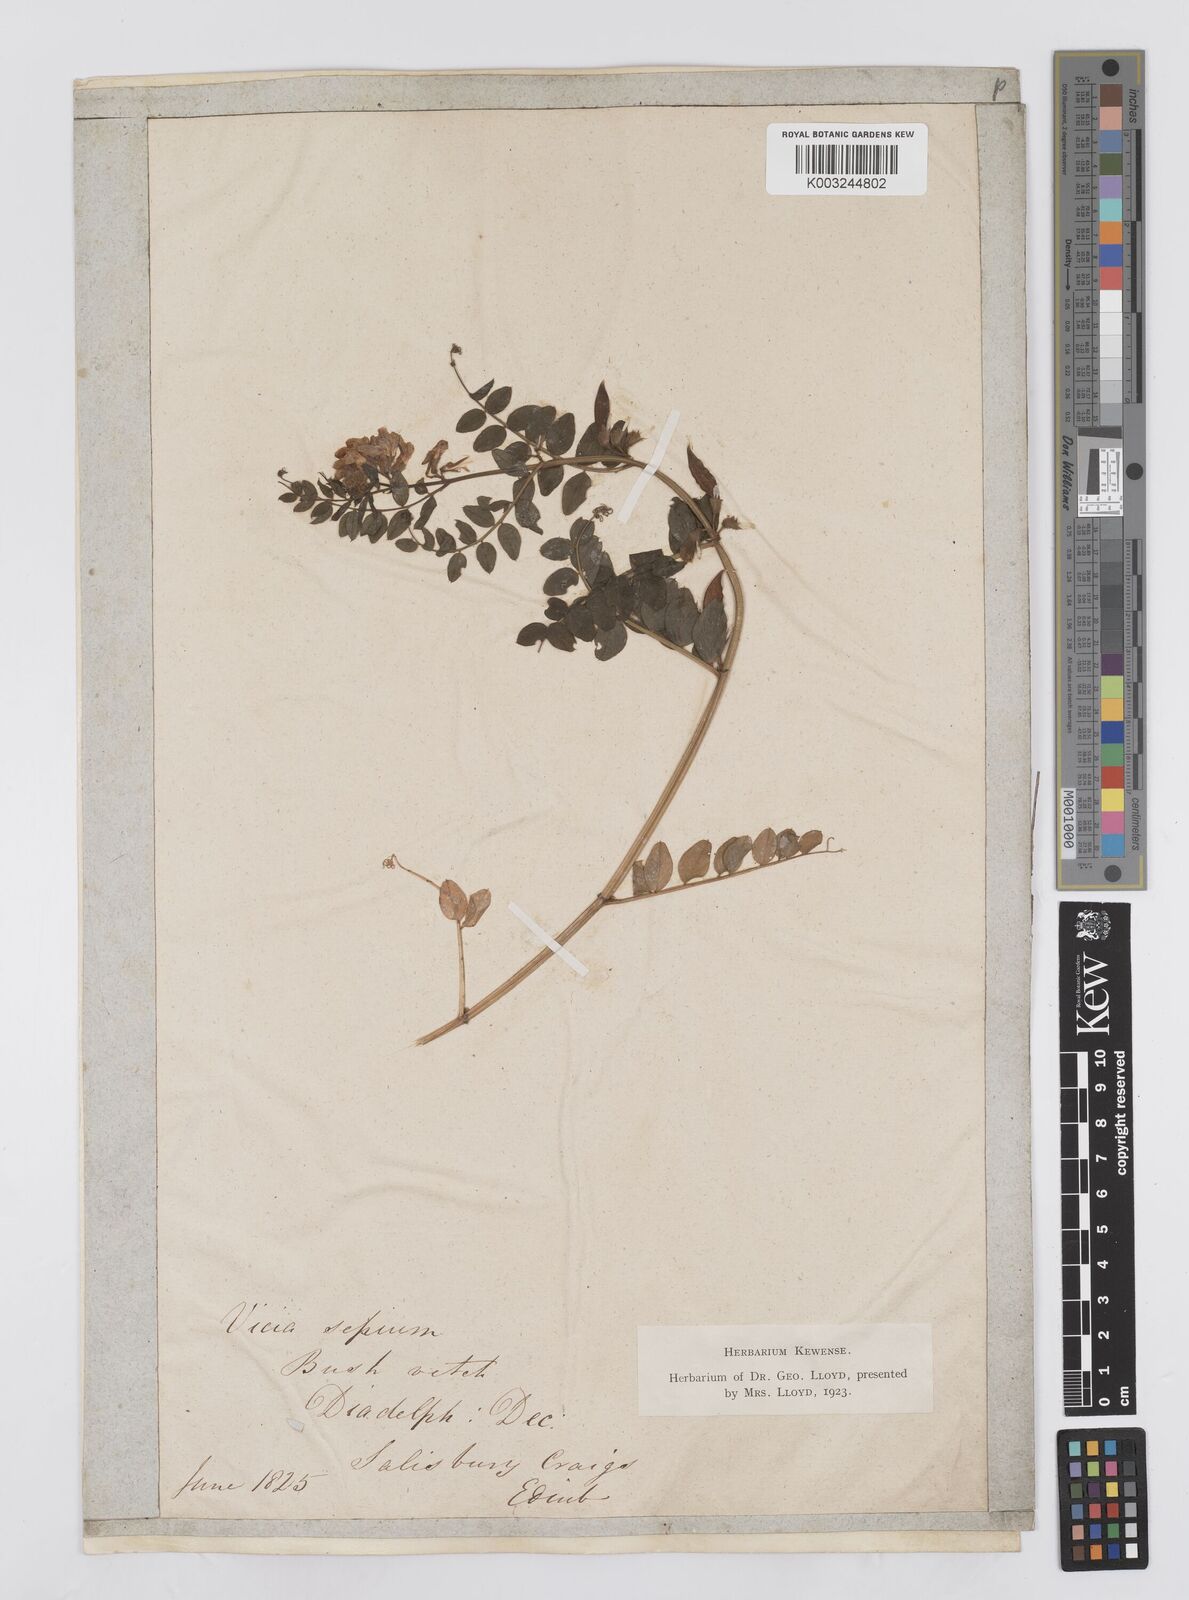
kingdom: Plantae
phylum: Tracheophyta
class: Magnoliopsida
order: Fabales
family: Fabaceae
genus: Vicia
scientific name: Vicia sepium
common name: Bush vetch
